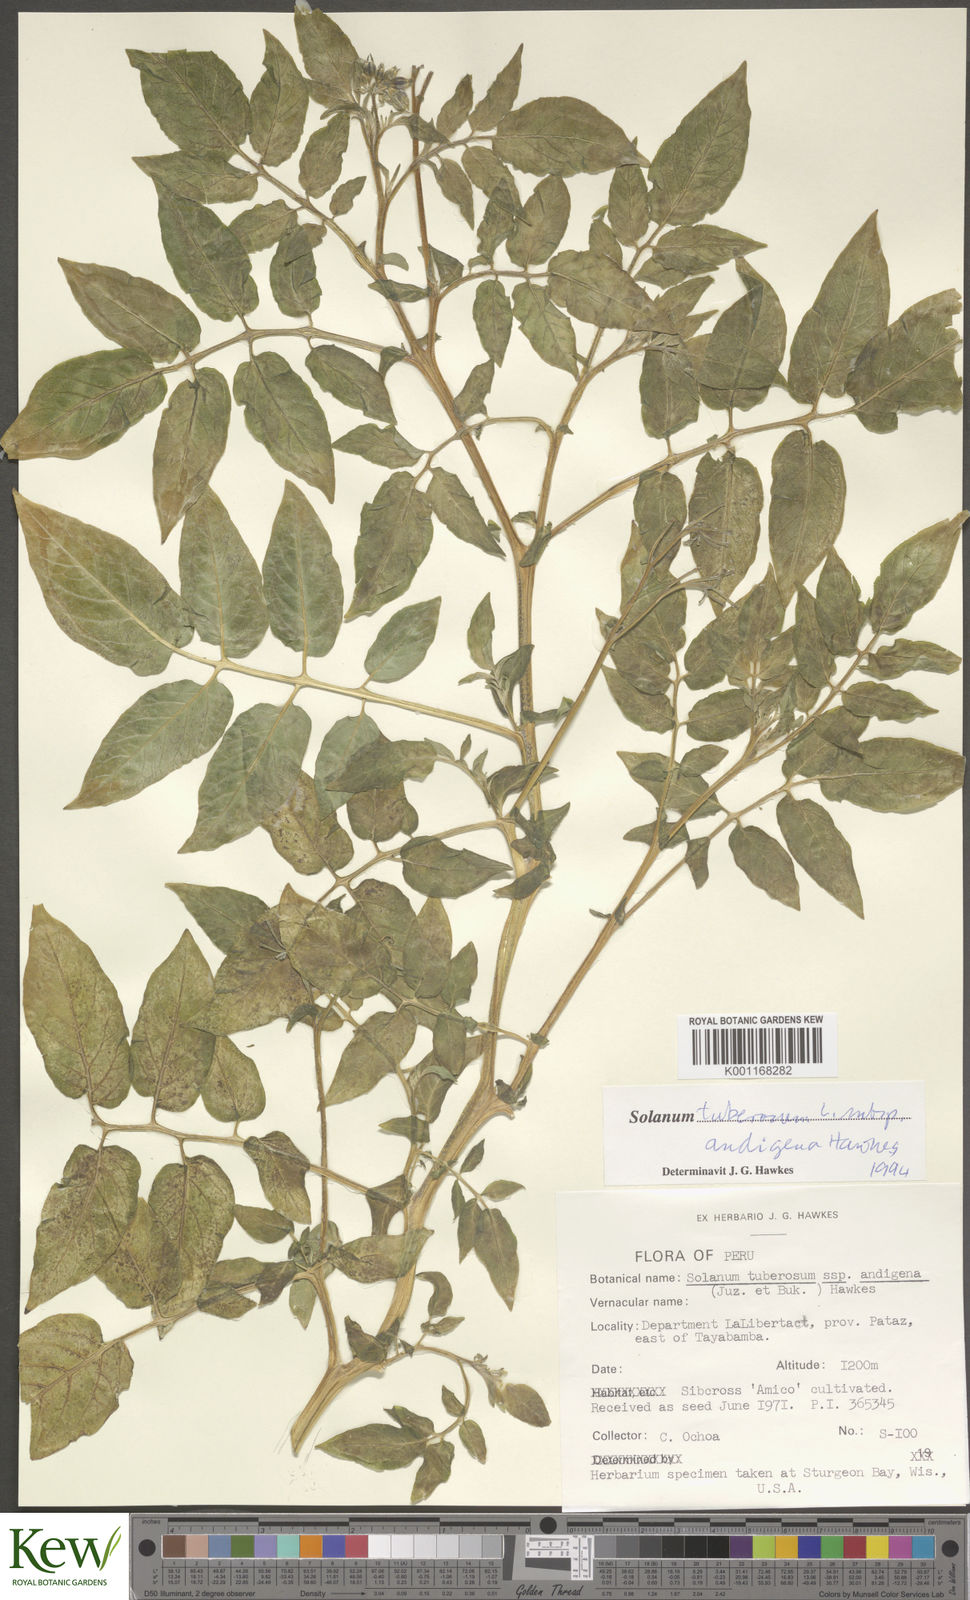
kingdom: Plantae
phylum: Tracheophyta
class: Magnoliopsida
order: Solanales
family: Solanaceae
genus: Solanum
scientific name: Solanum tuberosum
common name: Potato
